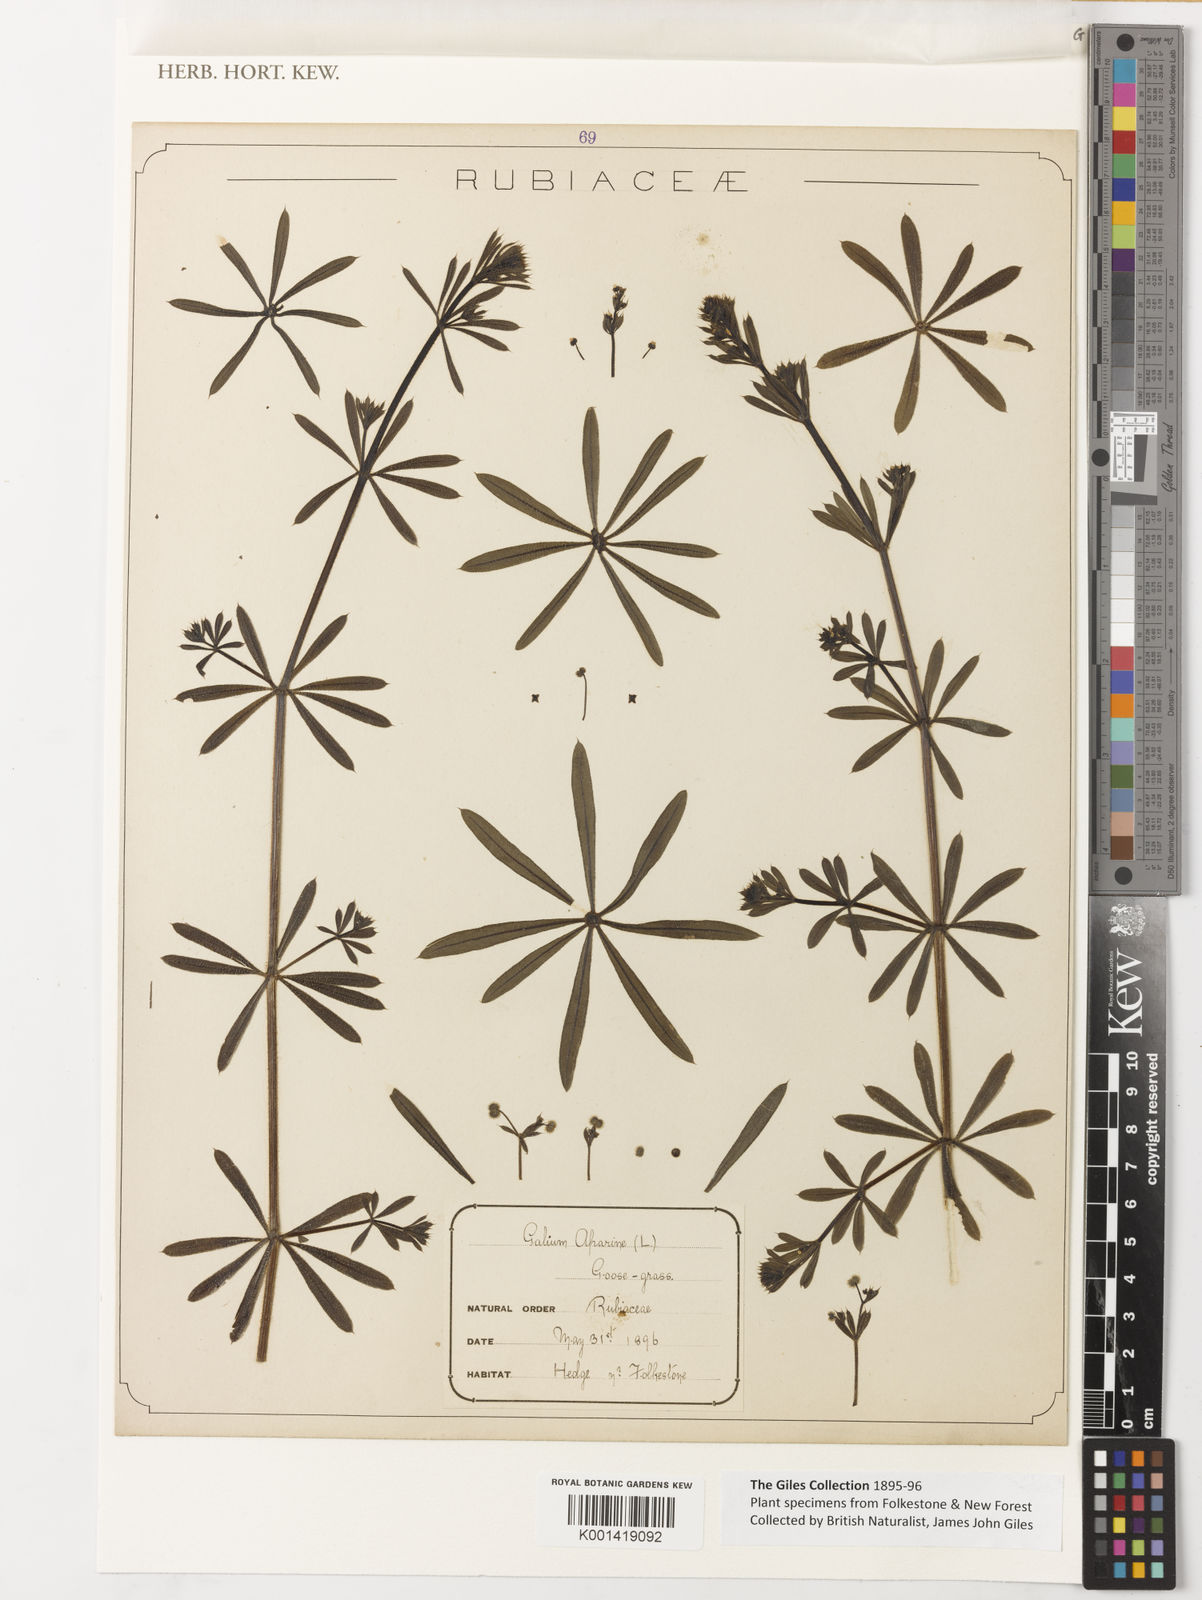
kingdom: Plantae
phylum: Tracheophyta
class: Magnoliopsida
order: Gentianales
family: Rubiaceae
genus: Galium
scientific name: Galium aparine
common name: Cleavers
